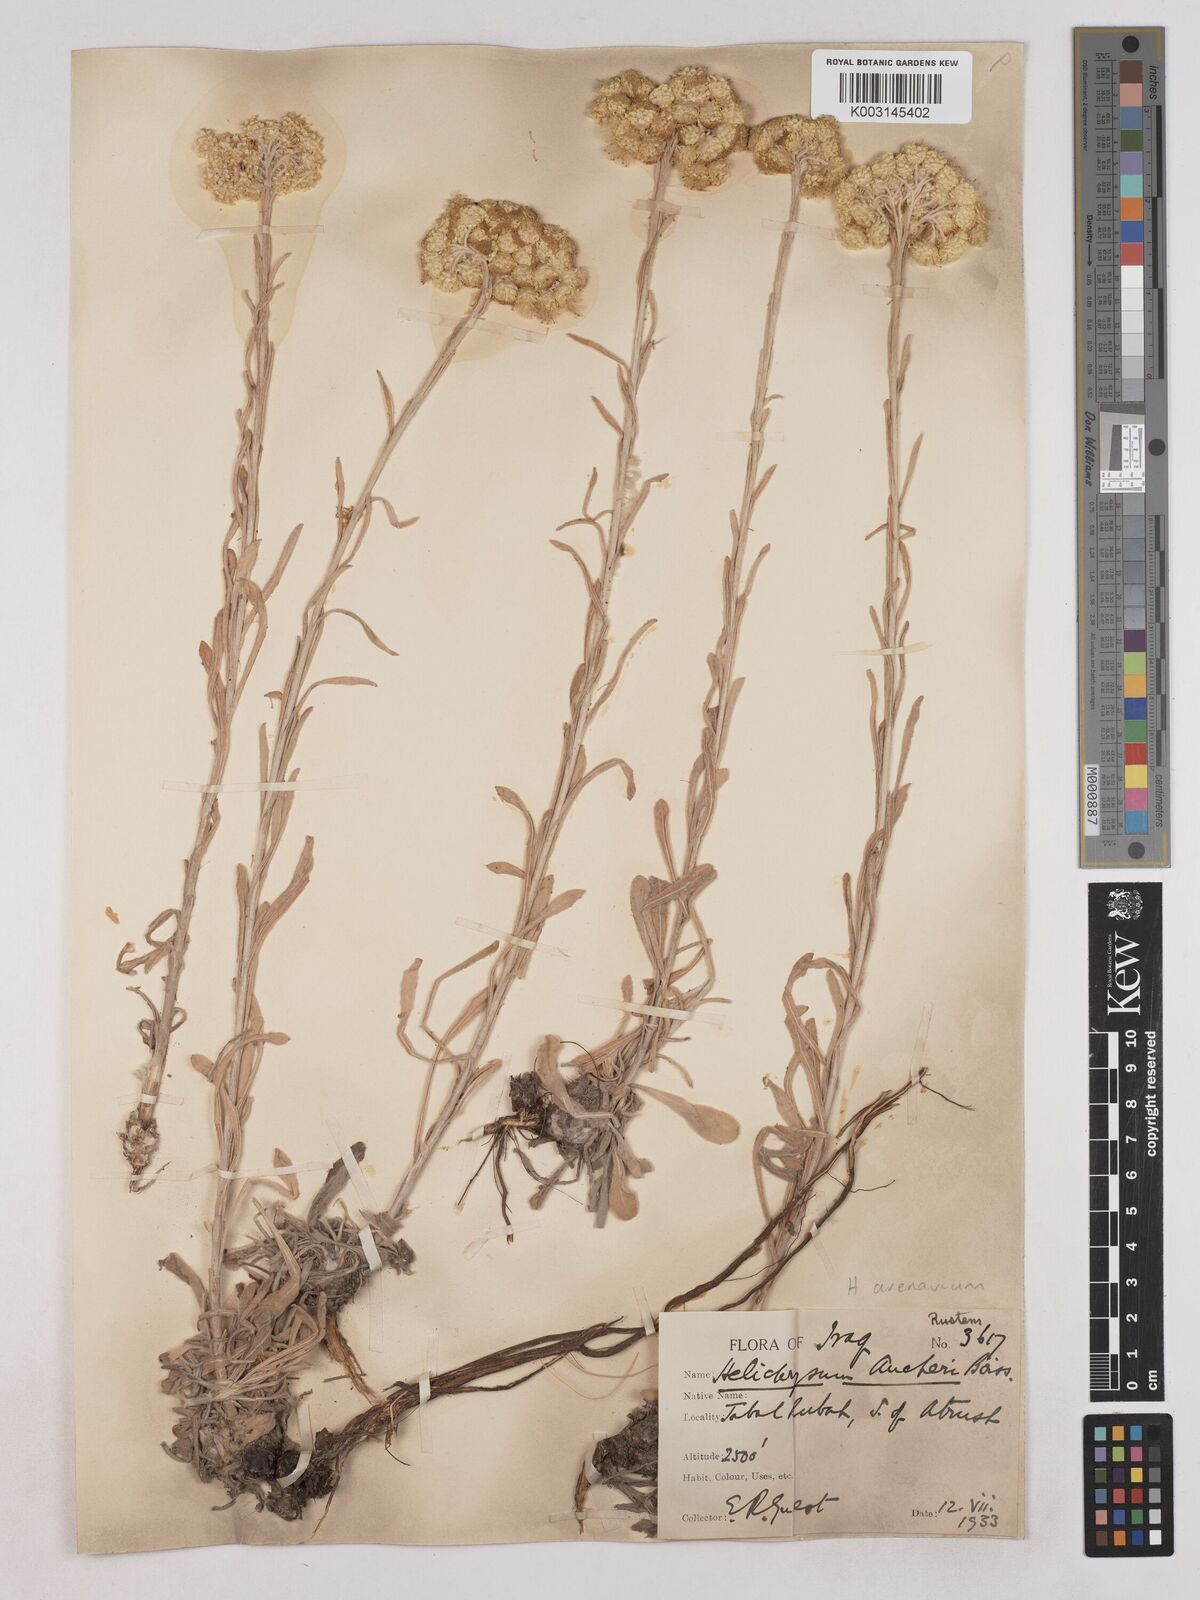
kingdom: Plantae
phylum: Tracheophyta
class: Magnoliopsida
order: Asterales
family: Asteraceae
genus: Helichrysum
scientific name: Helichrysum arenarium
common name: Strawflower
